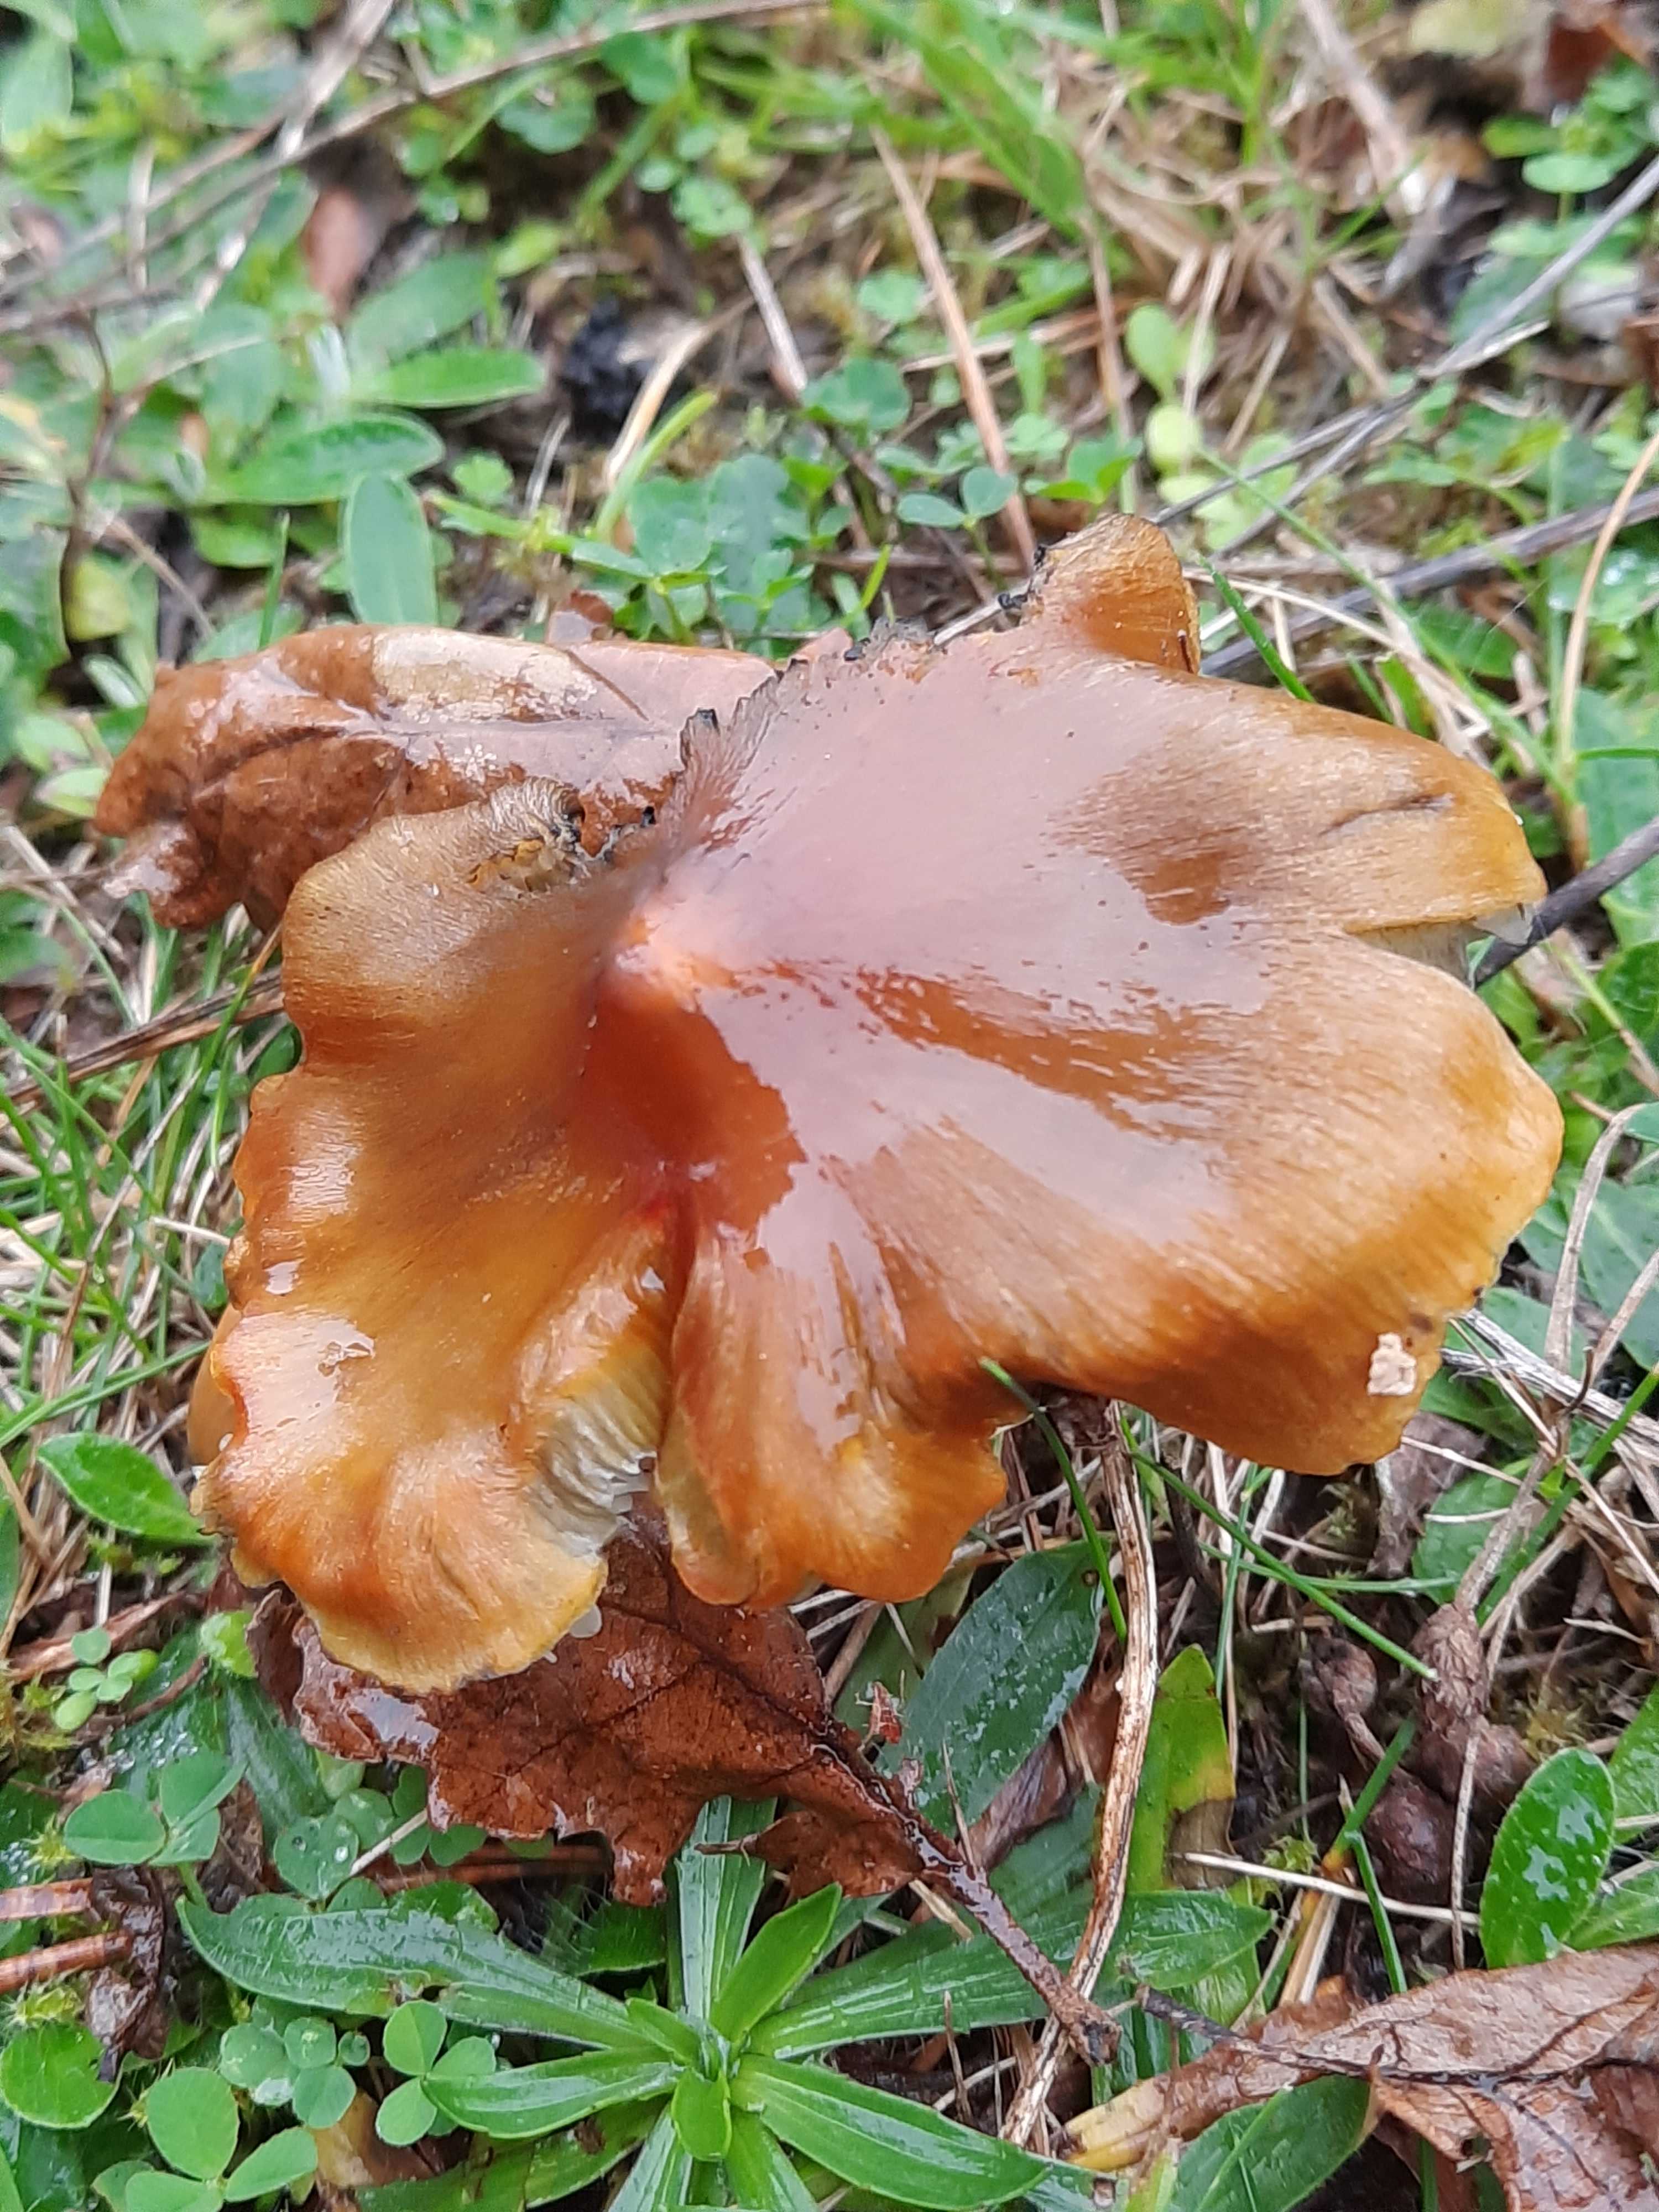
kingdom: Fungi
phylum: Basidiomycota
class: Agaricomycetes
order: Agaricales
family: Hygrophoraceae
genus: Hygrocybe
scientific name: Hygrocybe conica
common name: kegle-vokshat
